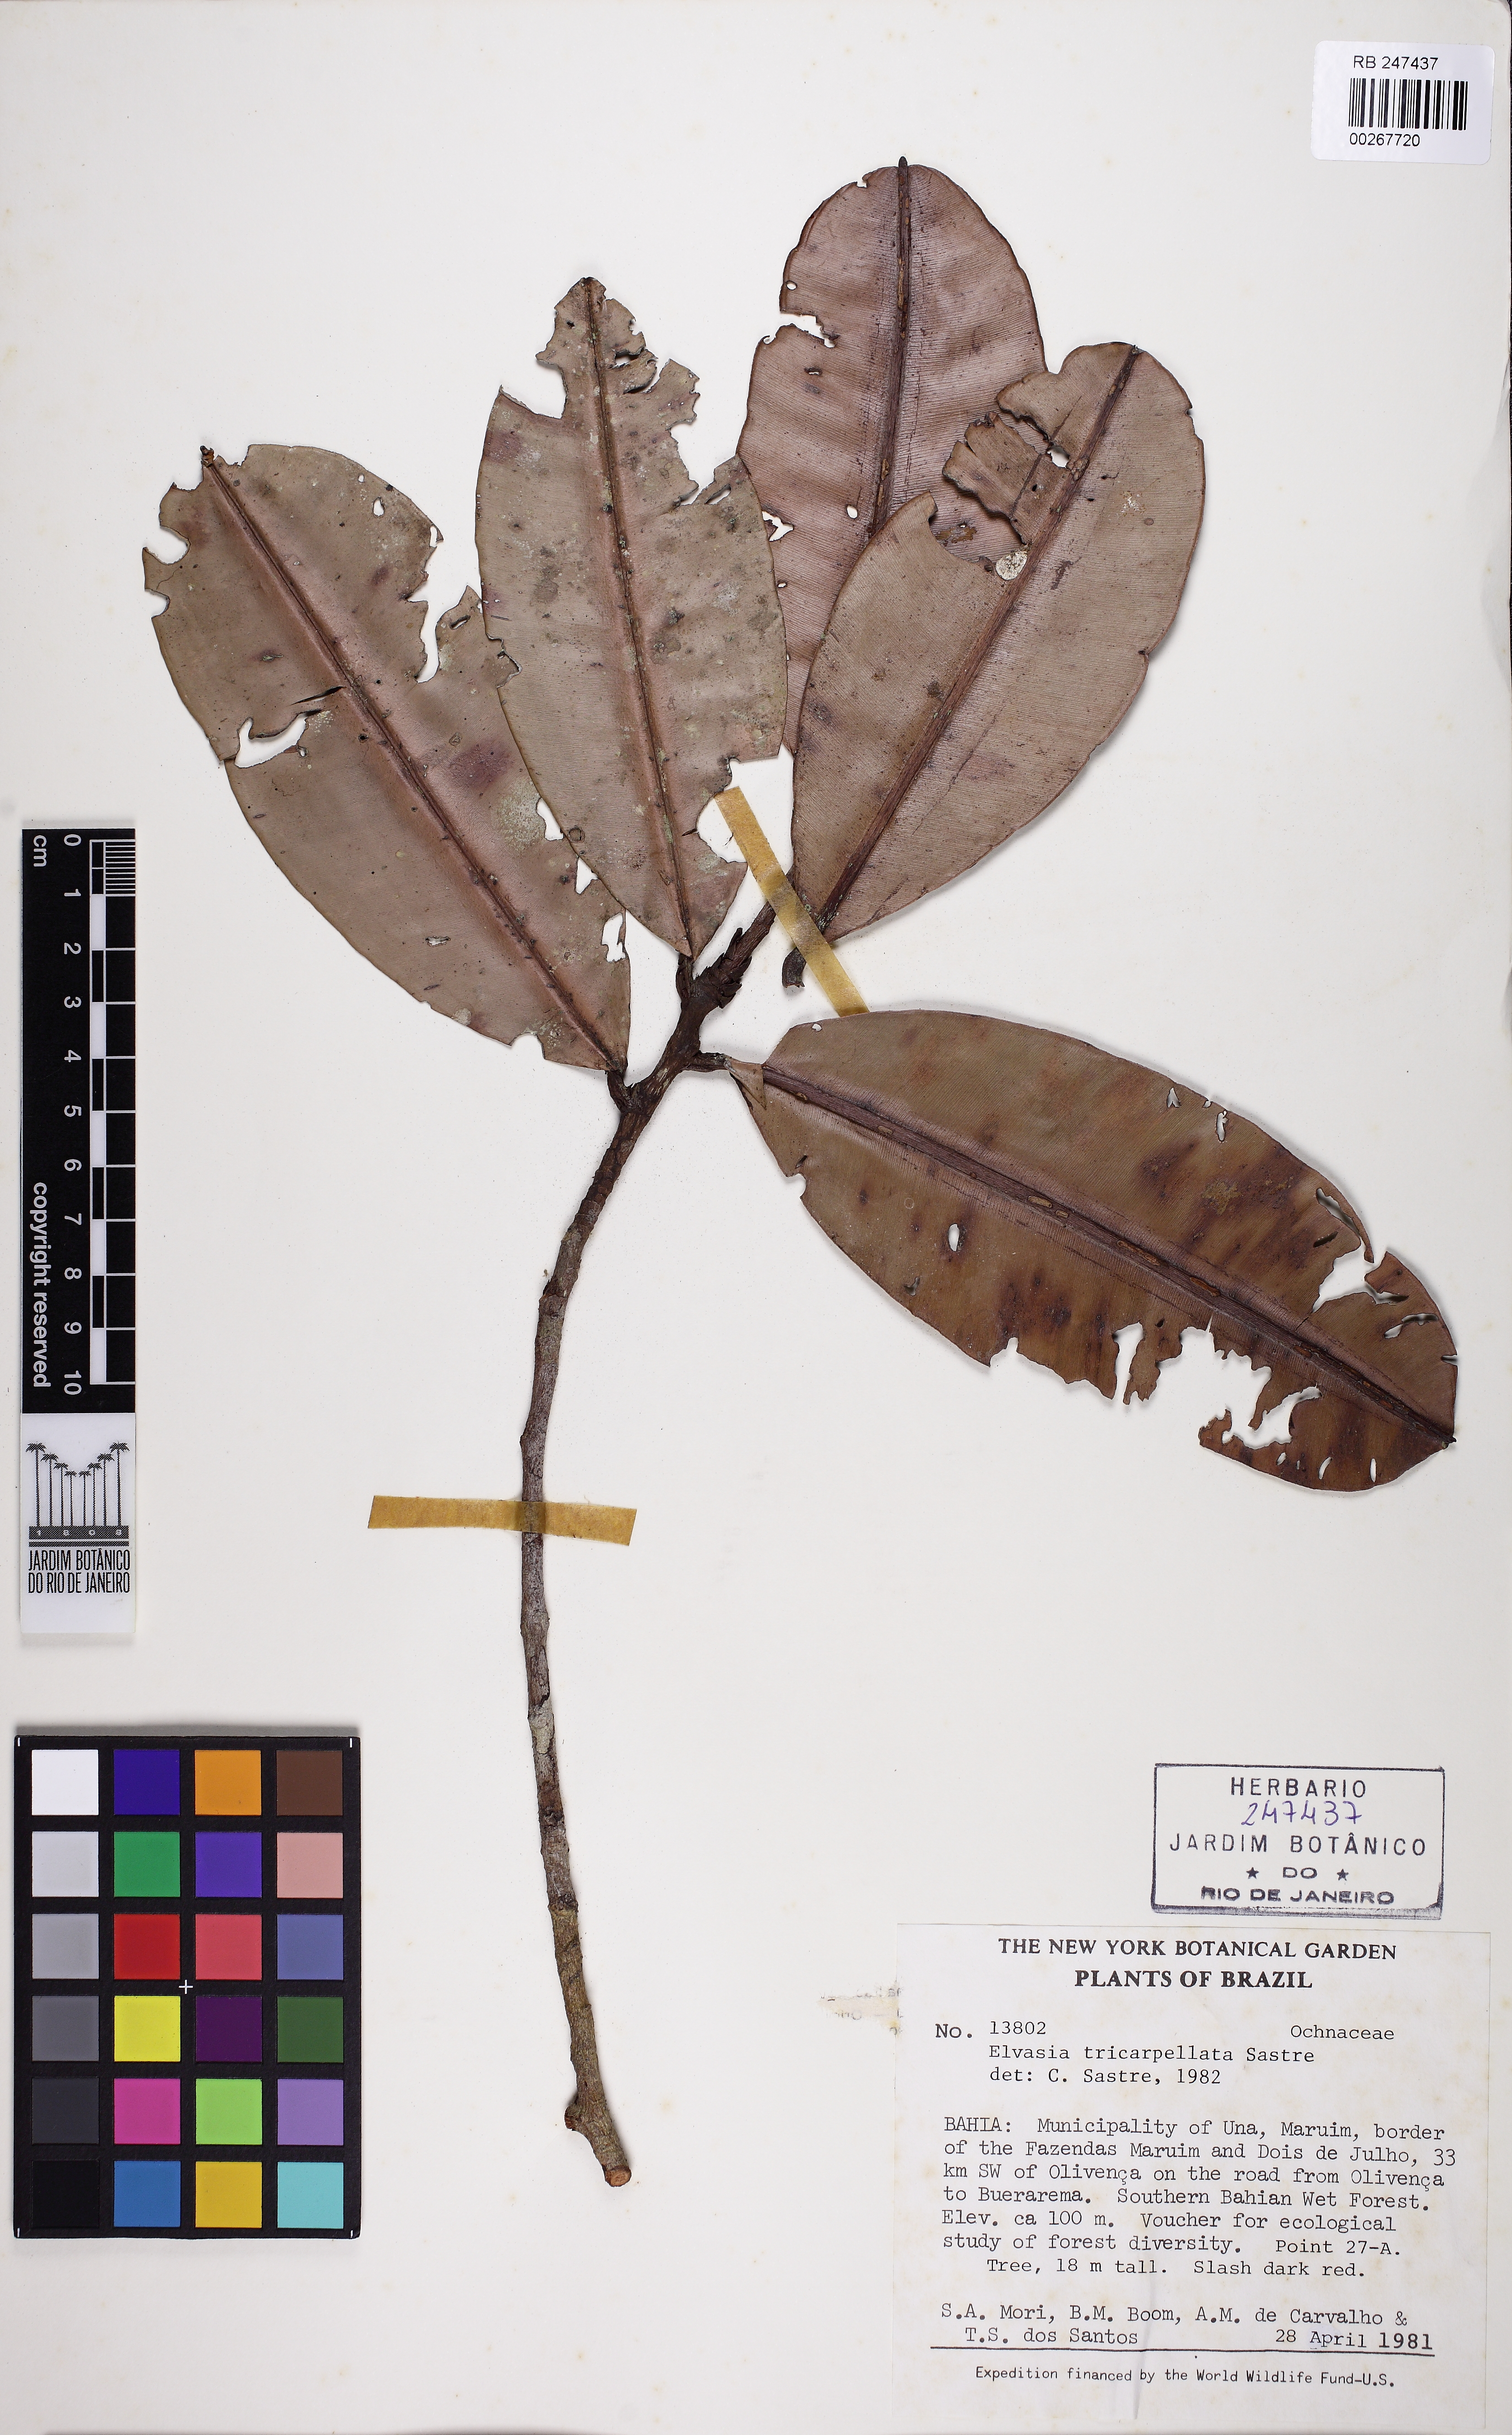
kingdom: Plantae
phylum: Tracheophyta
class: Magnoliopsida
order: Malpighiales
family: Ochnaceae
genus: Elvasia
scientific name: Elvasia tricarpellata
